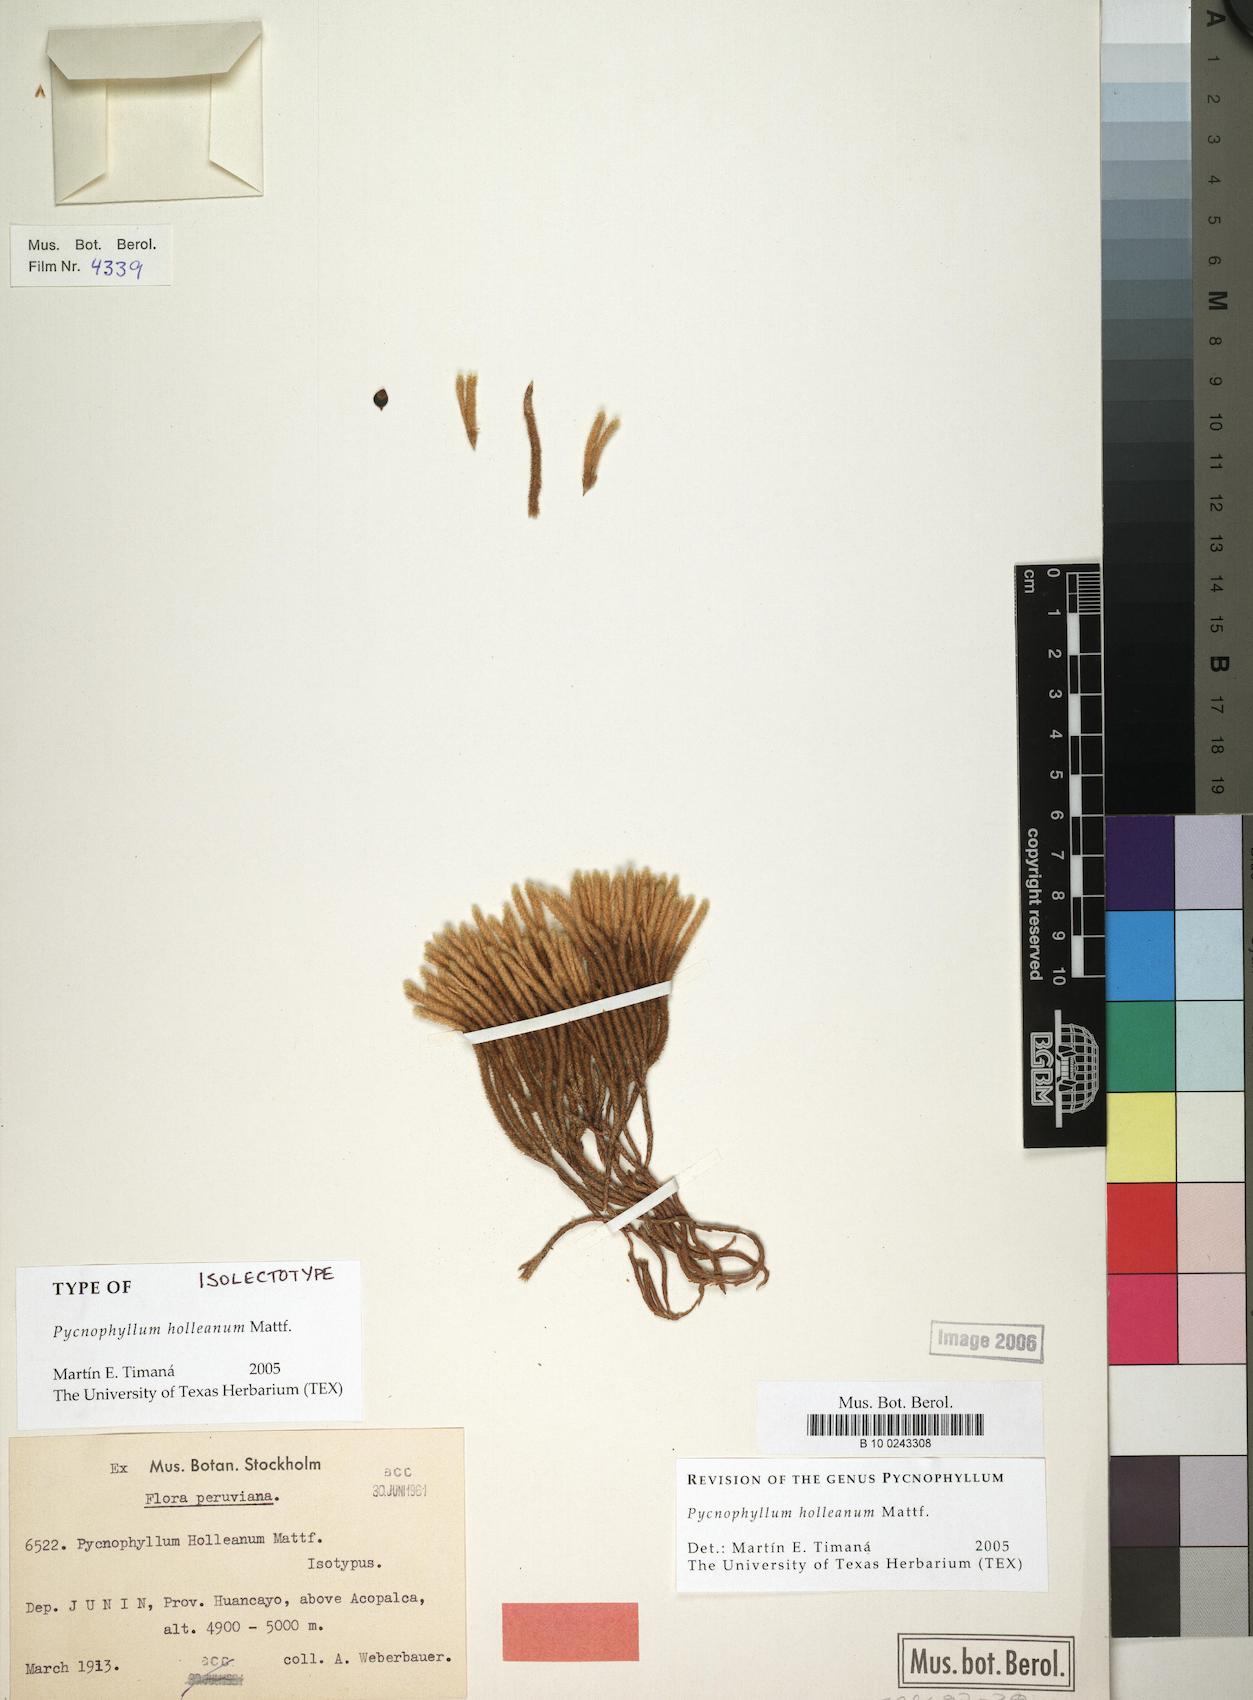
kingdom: Plantae
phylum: Tracheophyta
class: Magnoliopsida
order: Caryophyllales
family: Caryophyllaceae
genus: Pycnophyllum
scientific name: Pycnophyllum holleanum
